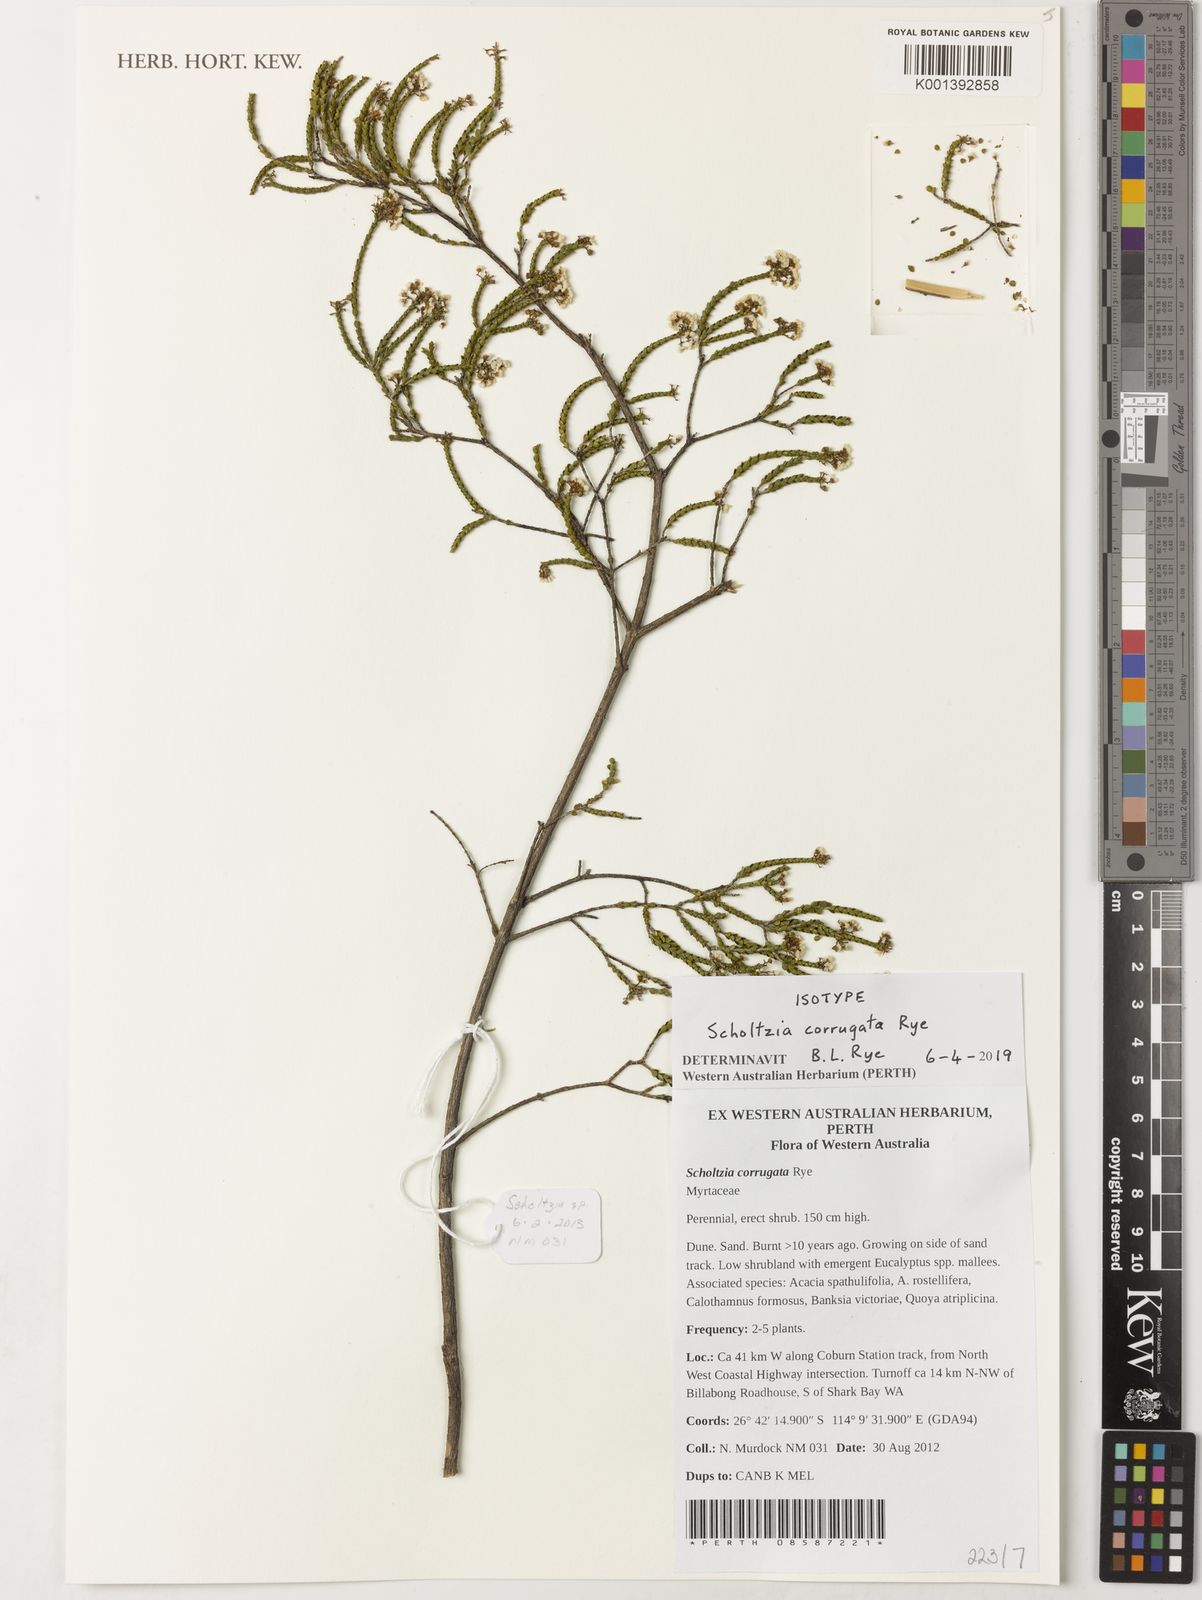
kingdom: Plantae
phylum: Tracheophyta
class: Magnoliopsida
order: Myrtales
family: Myrtaceae
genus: Scholtzia
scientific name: Scholtzia
